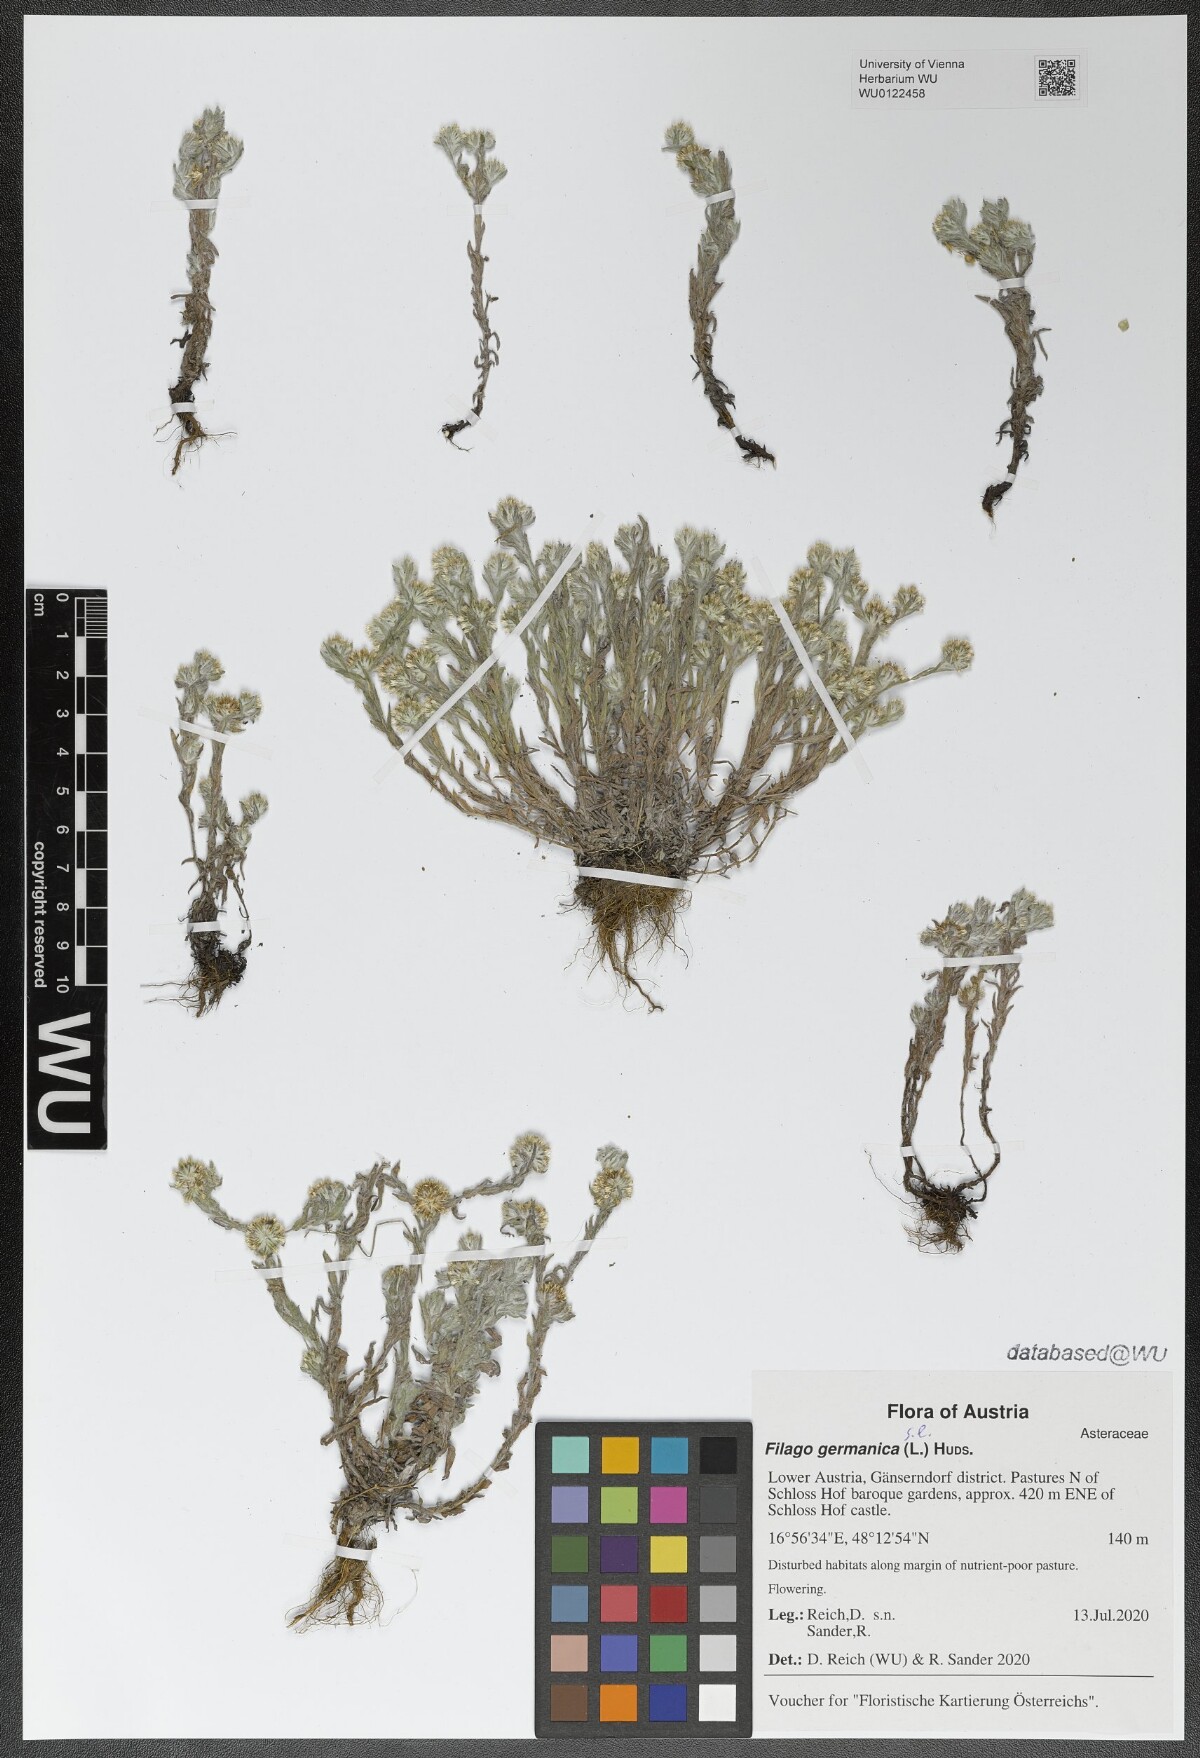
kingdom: Plantae
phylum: Tracheophyta
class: Magnoliopsida
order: Asterales
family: Asteraceae
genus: Filago
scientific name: Filago germanica
